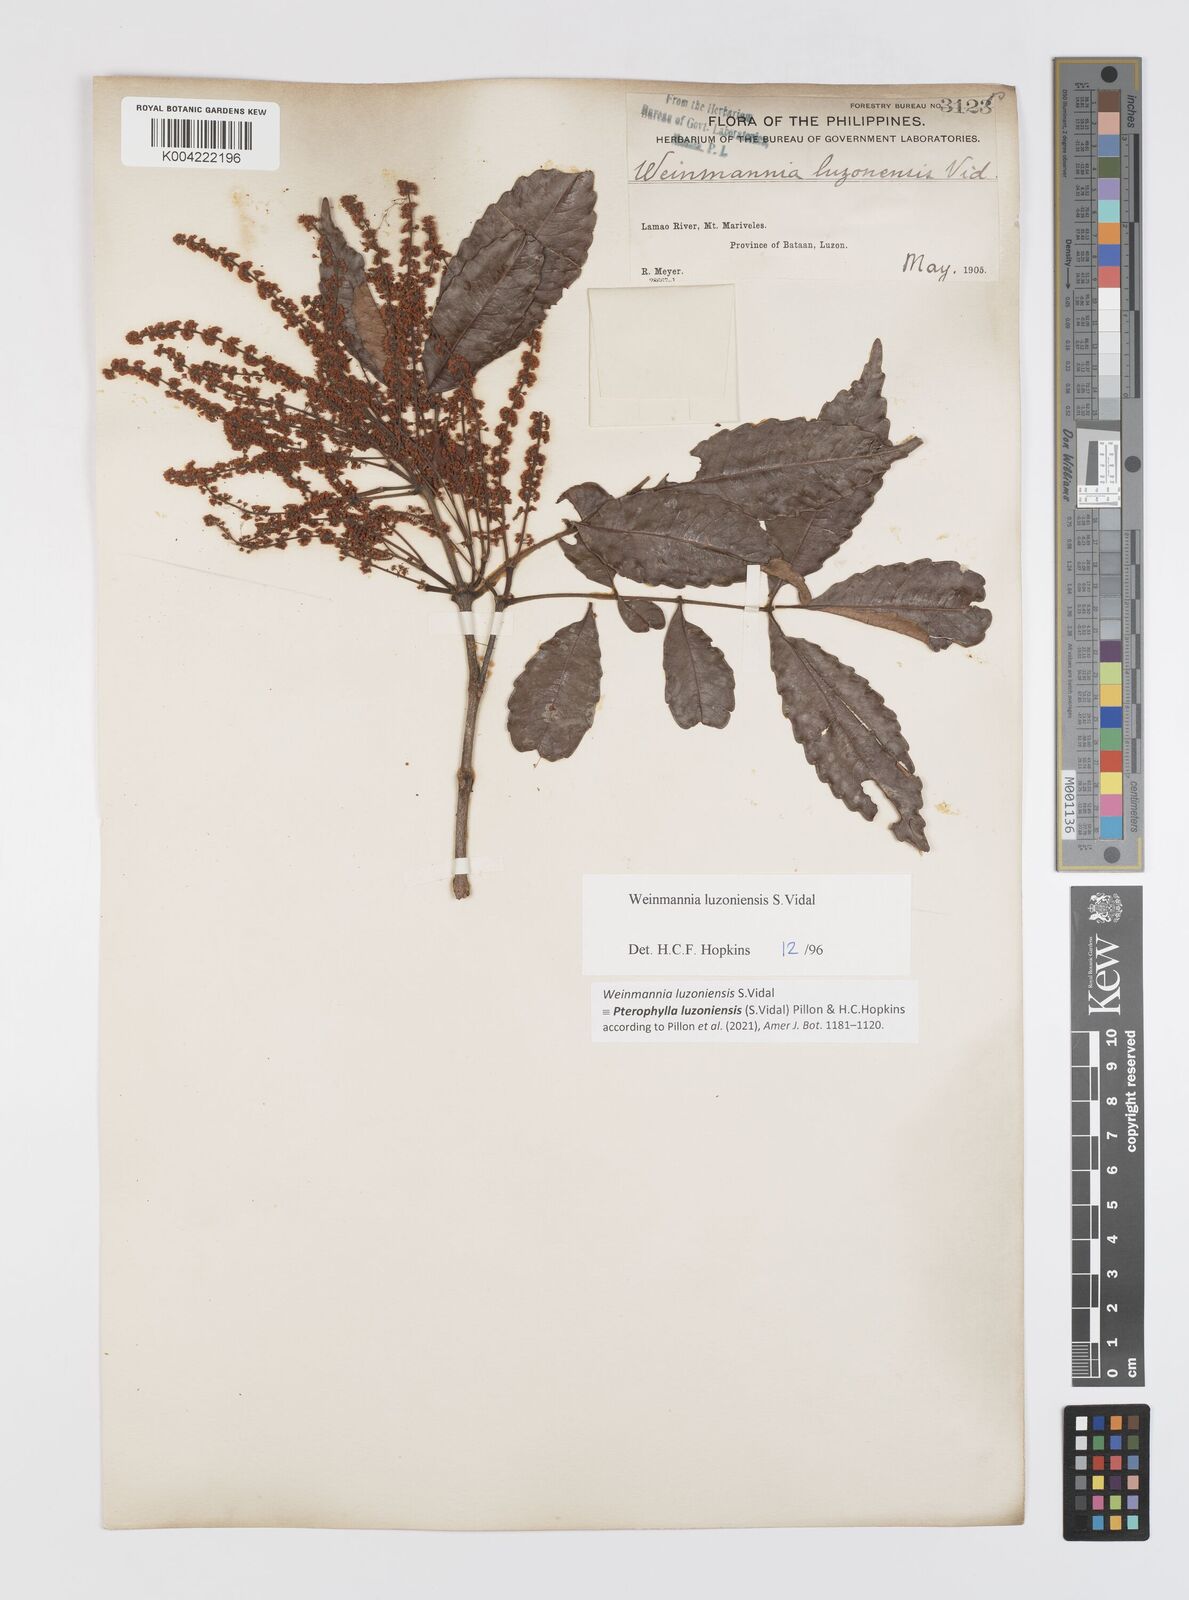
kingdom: Plantae
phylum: Tracheophyta
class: Magnoliopsida
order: Oxalidales
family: Cunoniaceae
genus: Pterophylla
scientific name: Pterophylla luzoniensis
